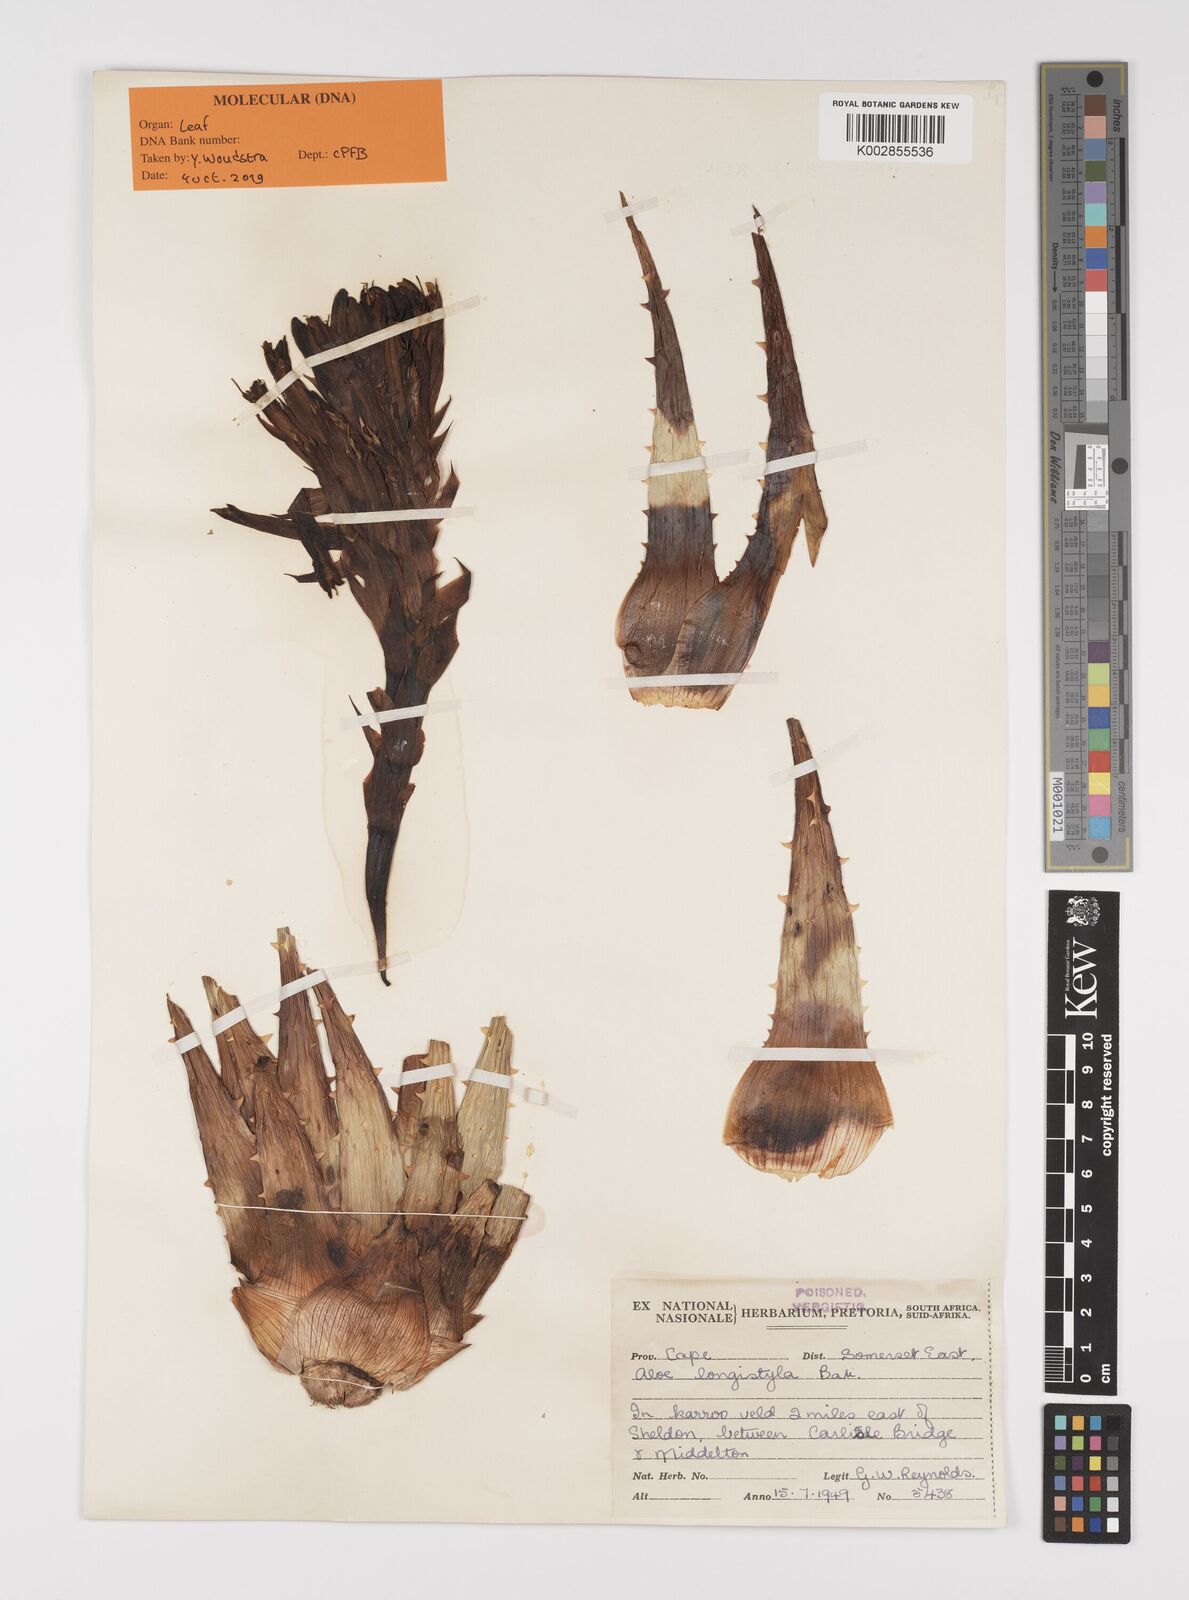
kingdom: Plantae
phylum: Tracheophyta
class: Liliopsida
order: Asparagales
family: Asphodelaceae
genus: Aloe
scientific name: Aloe longistyla
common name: Karoo aloe
